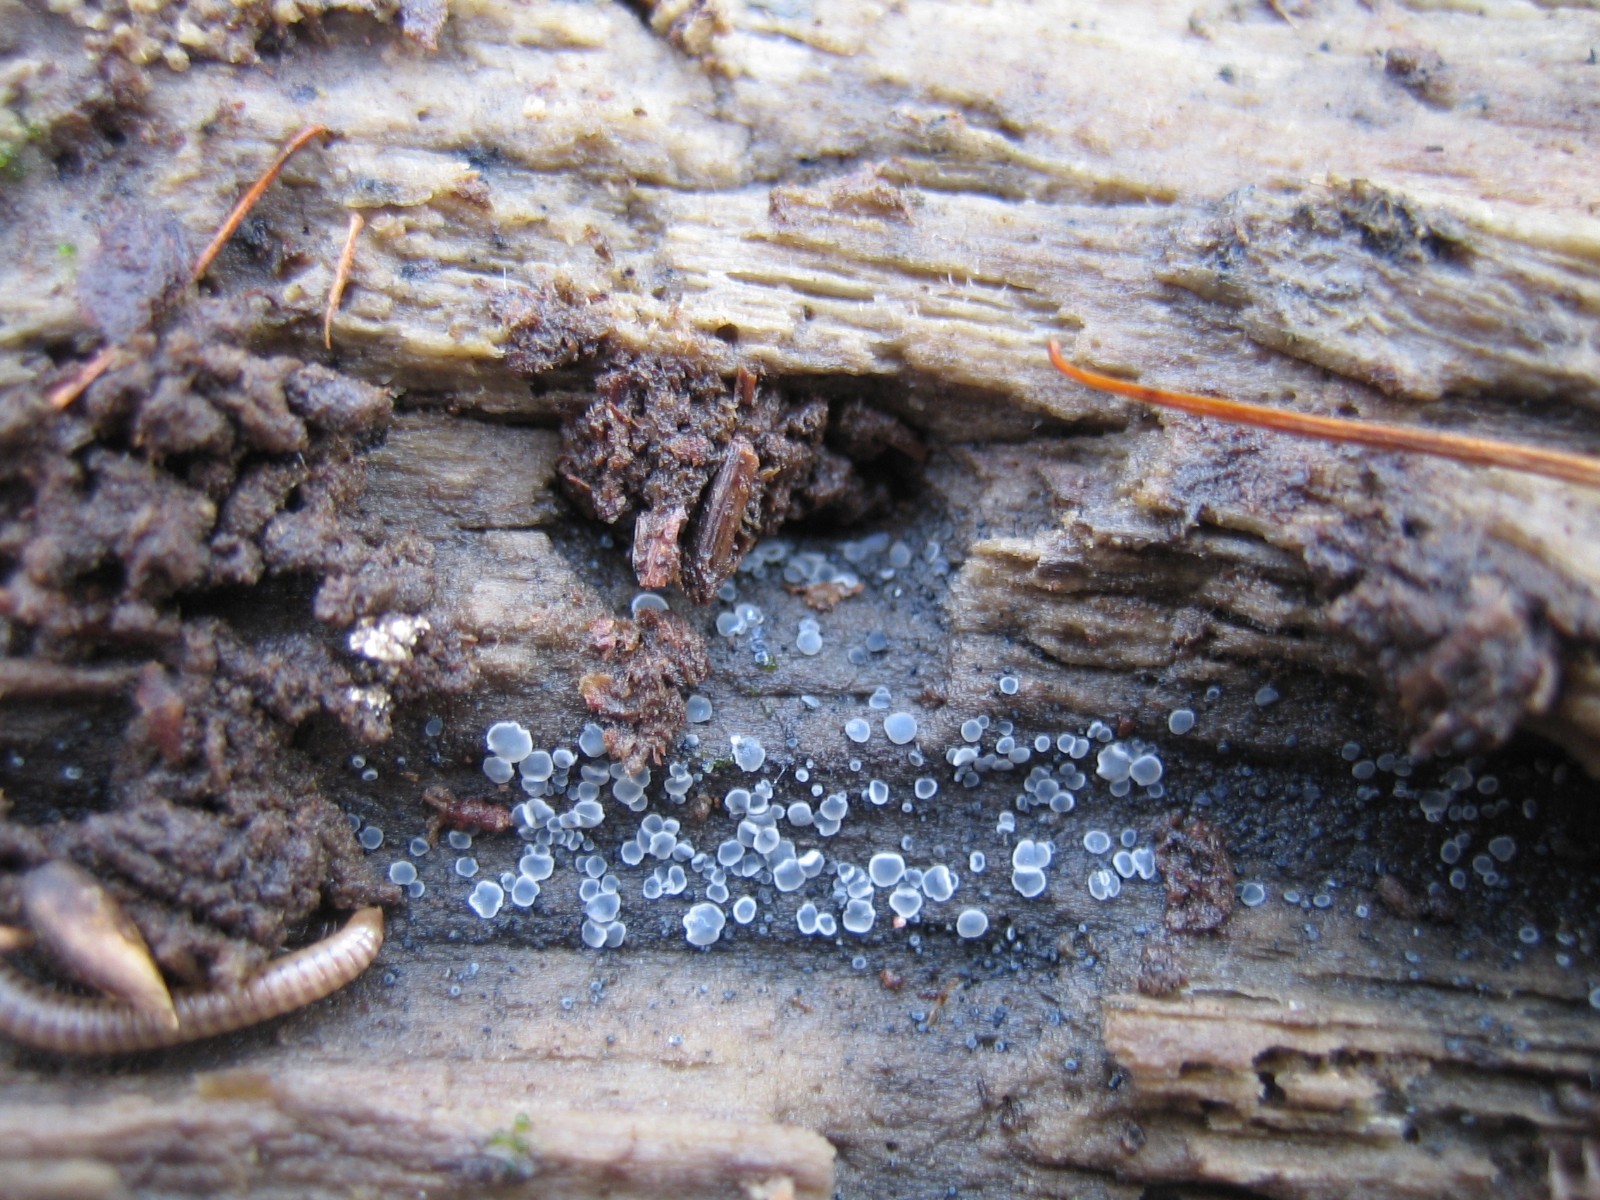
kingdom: Fungi
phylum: Ascomycota
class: Leotiomycetes
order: Helotiales
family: Mollisiaceae
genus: Mollisia
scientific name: Mollisia cinerea
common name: almindelig gråskive
